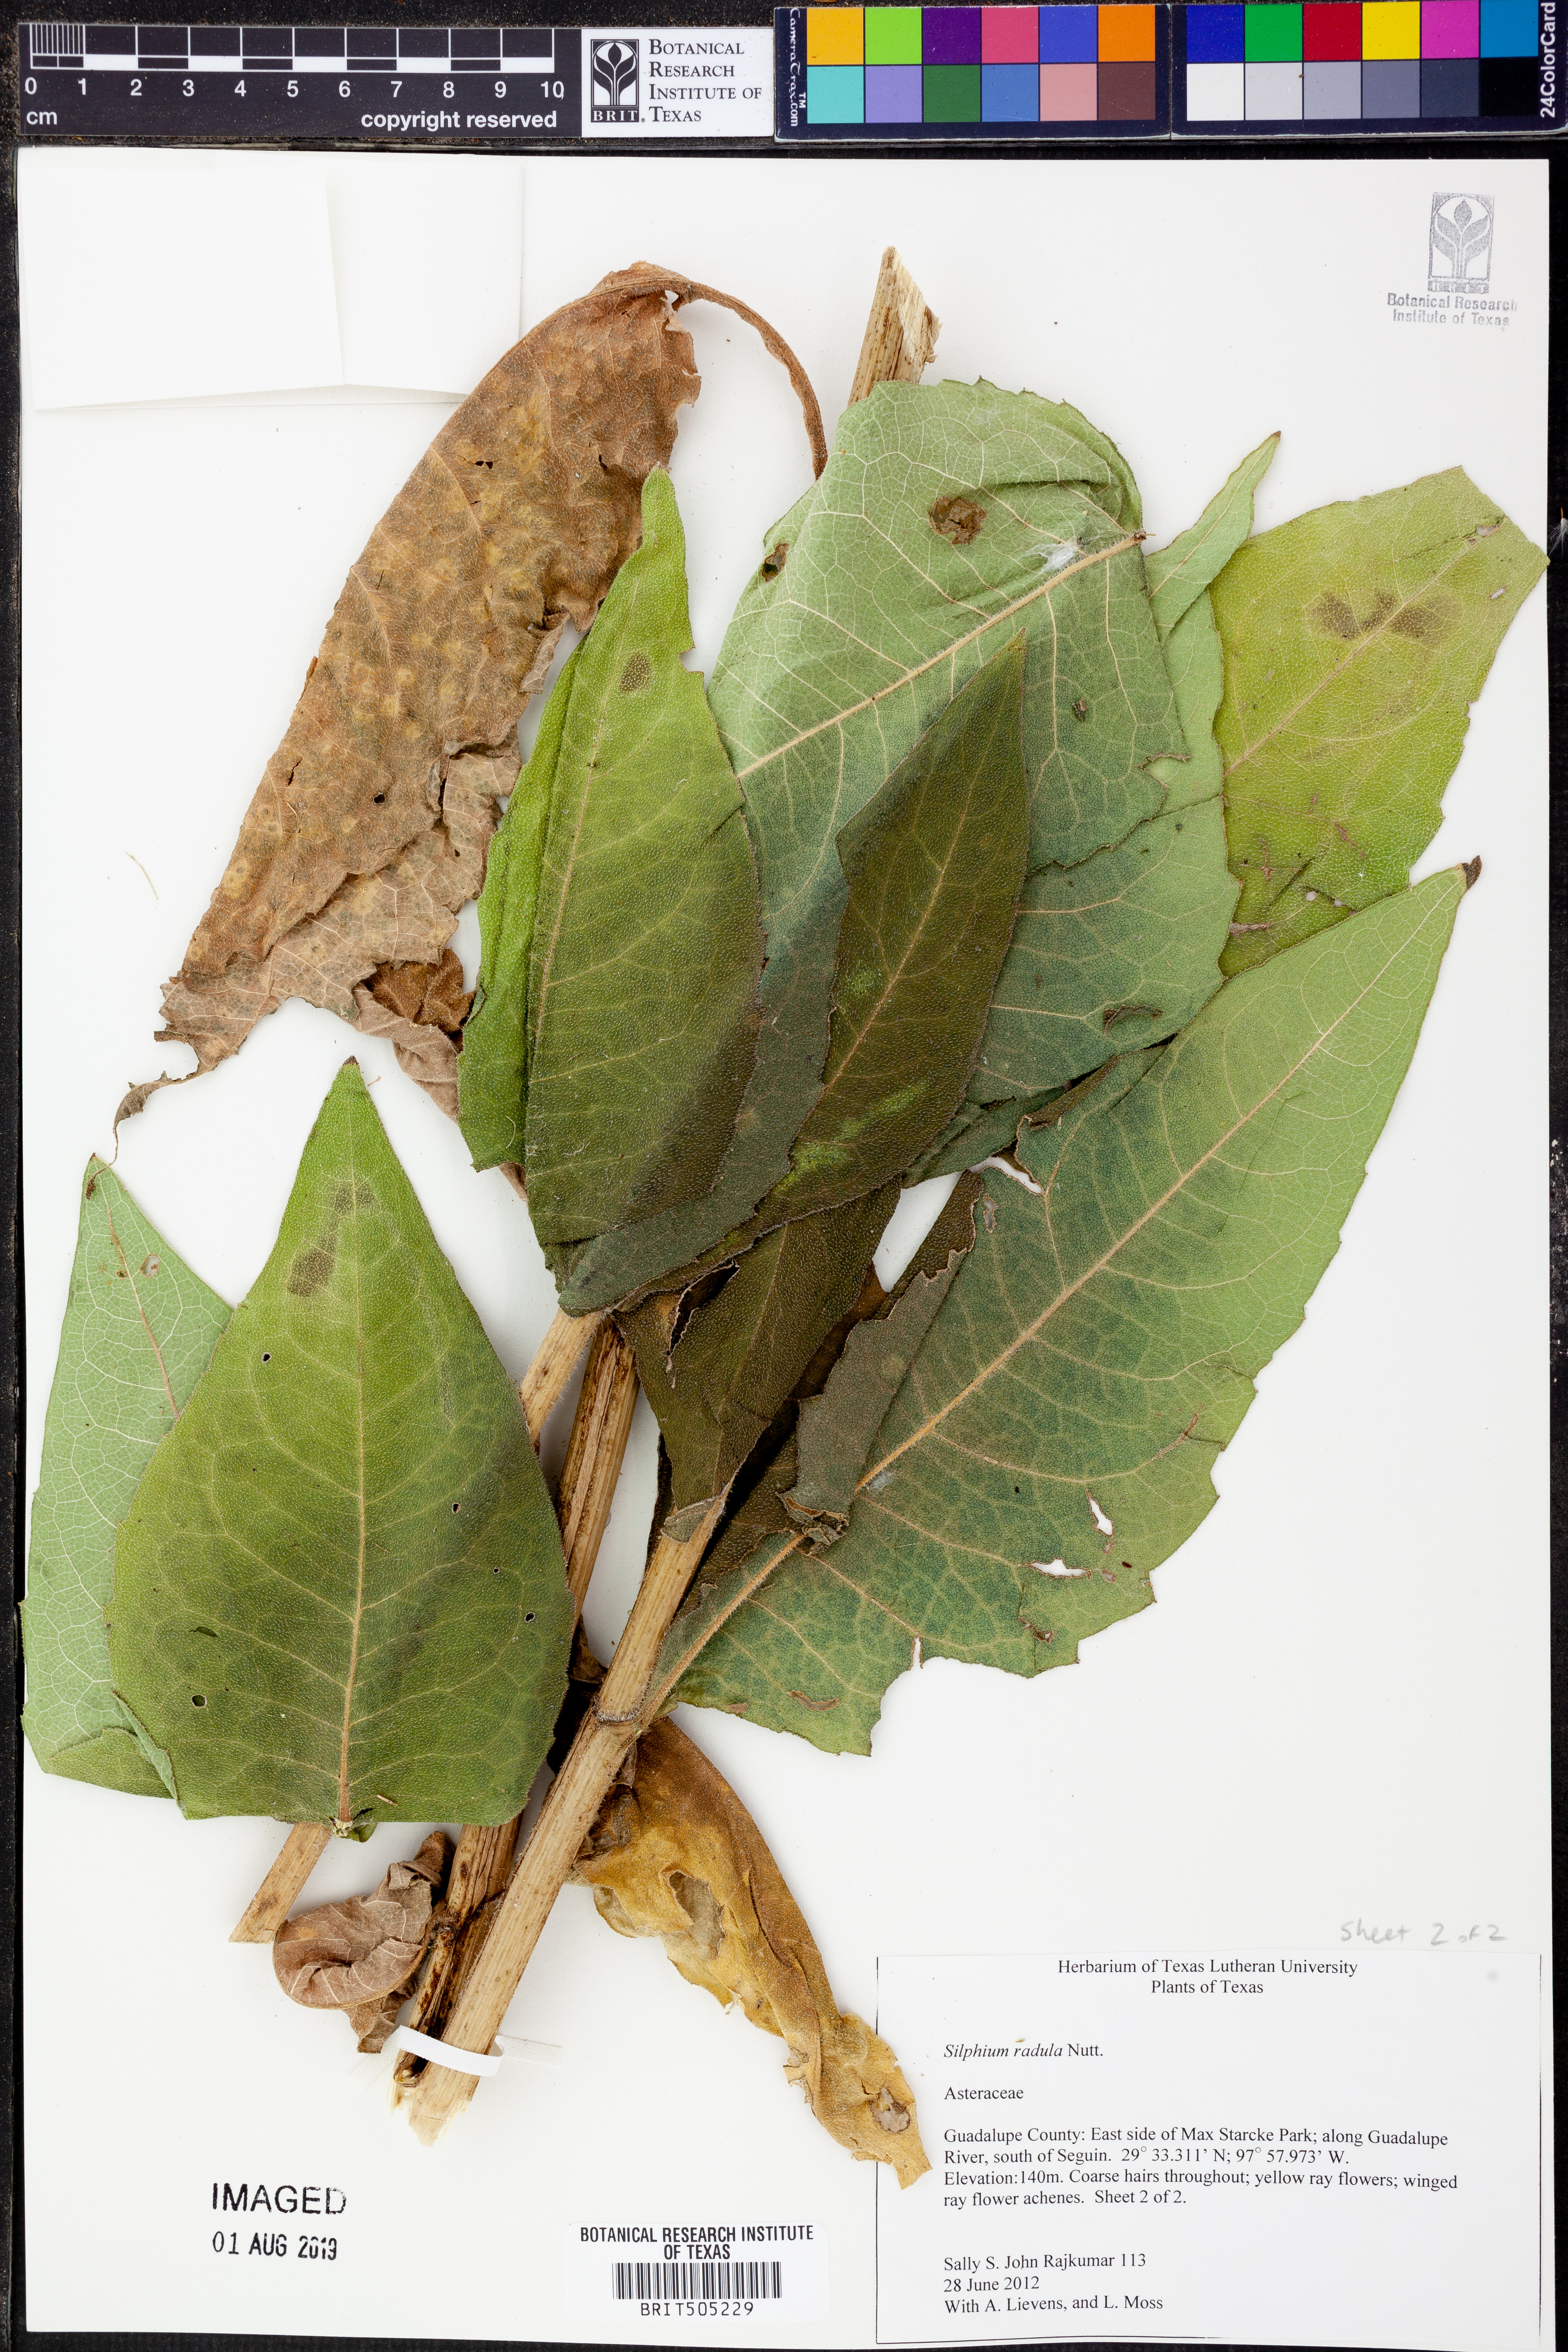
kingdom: Plantae
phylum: Tracheophyta
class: Magnoliopsida
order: Asterales
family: Asteraceae
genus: Silphium
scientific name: Silphium radula
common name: Roughleaf rosinweed
